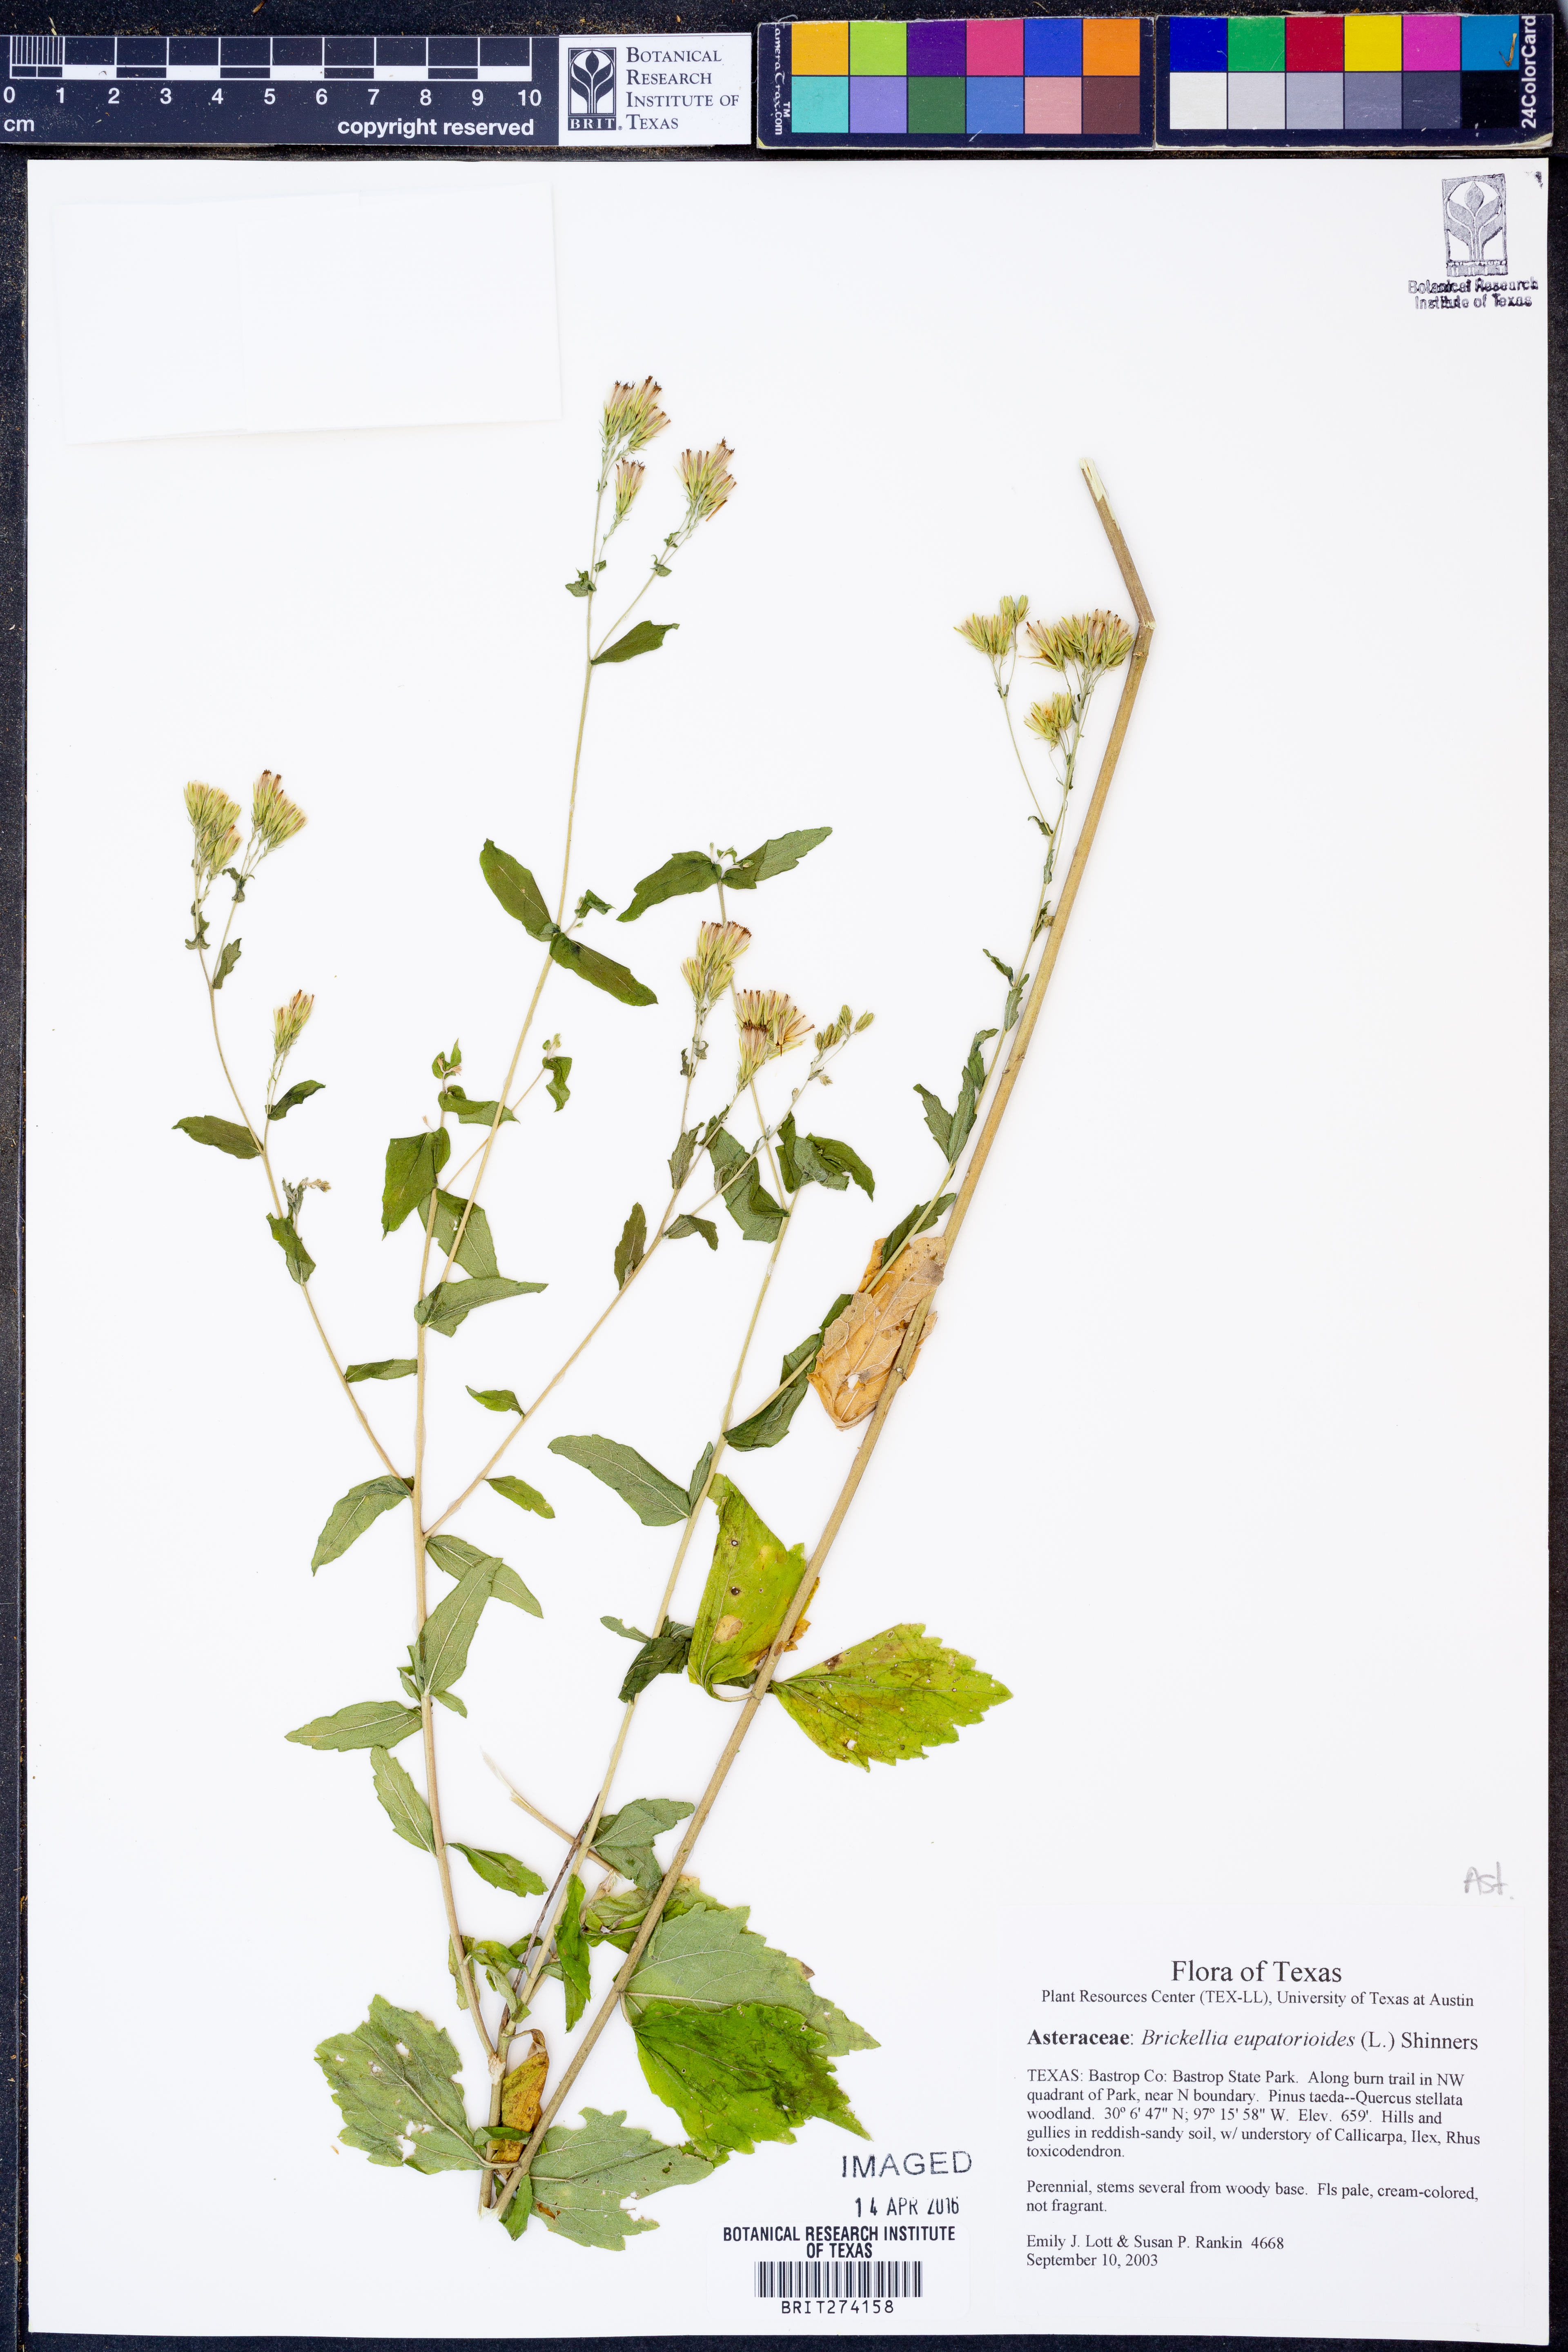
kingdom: Plantae
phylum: Tracheophyta
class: Magnoliopsida
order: Asterales
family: Asteraceae
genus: Brickellia
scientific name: Brickellia eupatorioides
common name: False boneset
